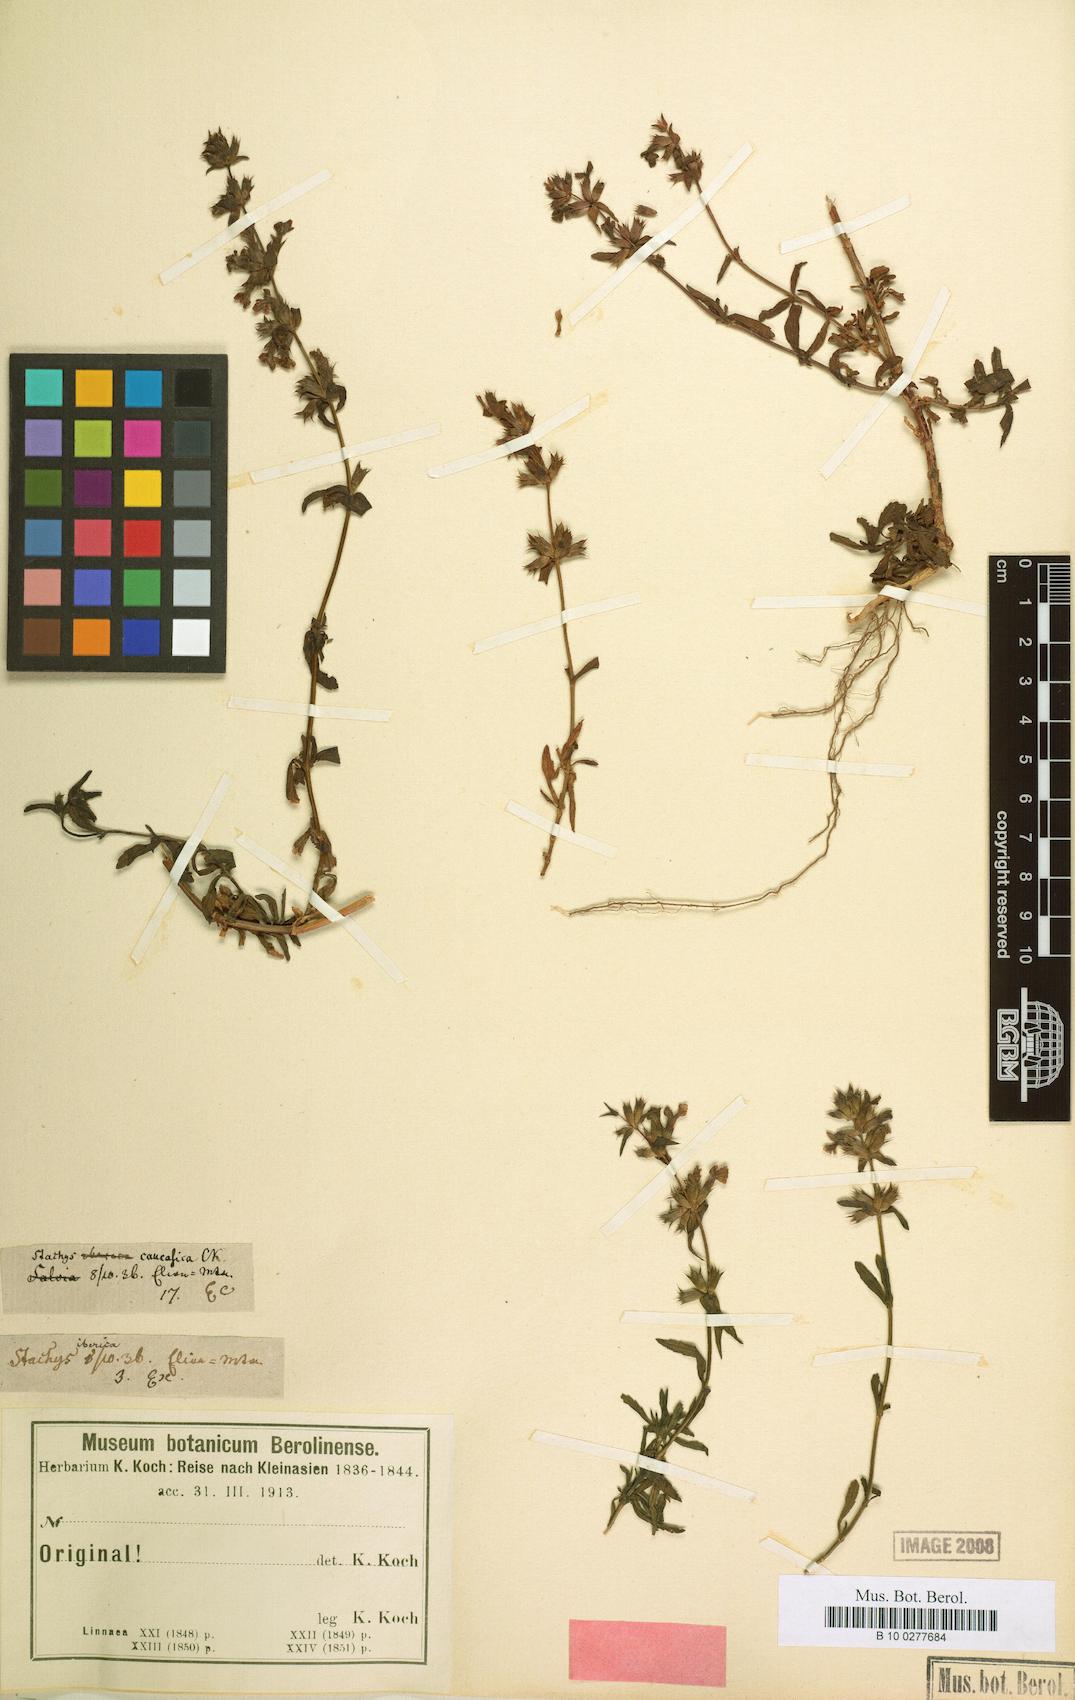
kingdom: Plantae
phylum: Tracheophyta
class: Magnoliopsida
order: Lamiales
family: Lamiaceae
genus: Stachys
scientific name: Stachys iberica
